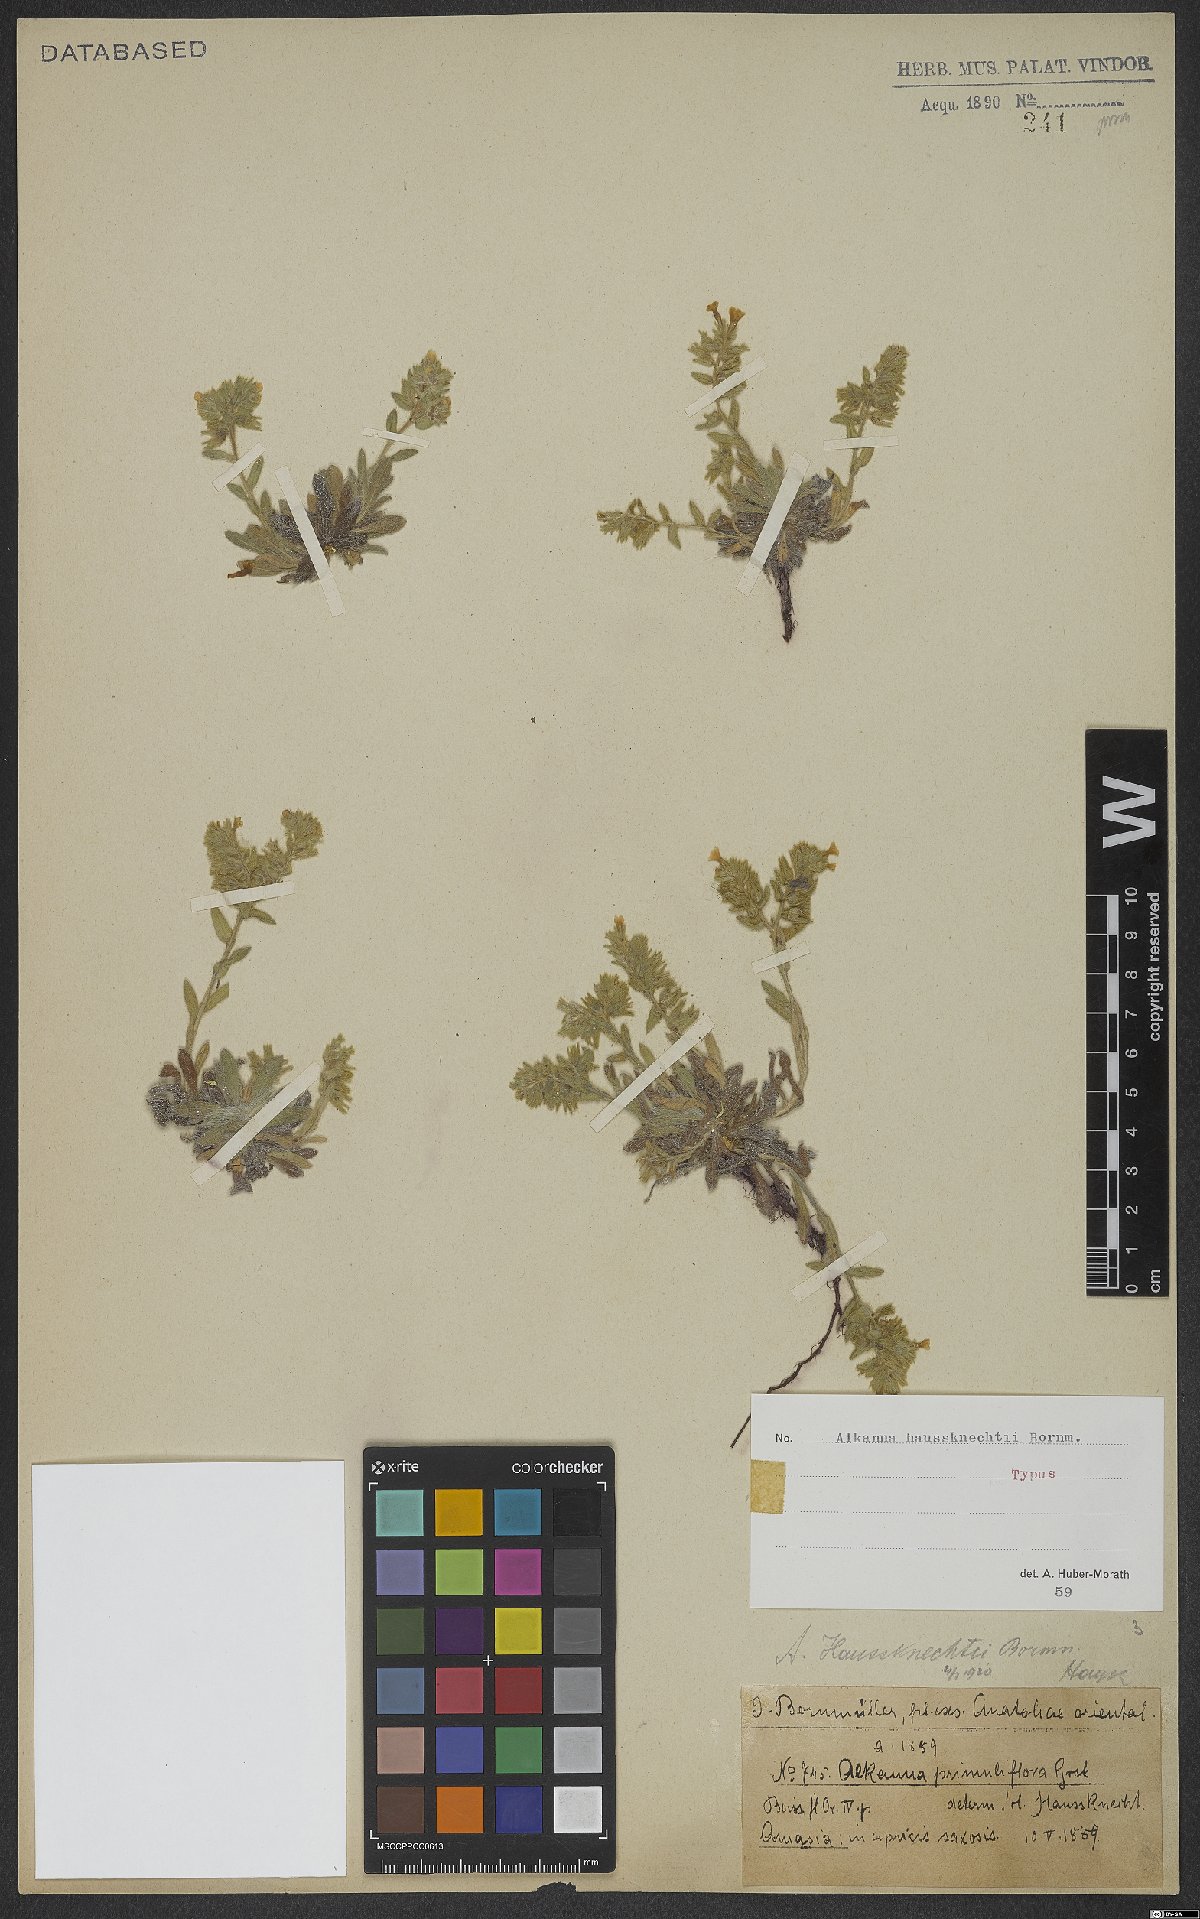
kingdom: Plantae
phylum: Tracheophyta
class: Magnoliopsida
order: Boraginales
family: Boraginaceae
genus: Alkanna
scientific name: Alkanna haussknechtii
